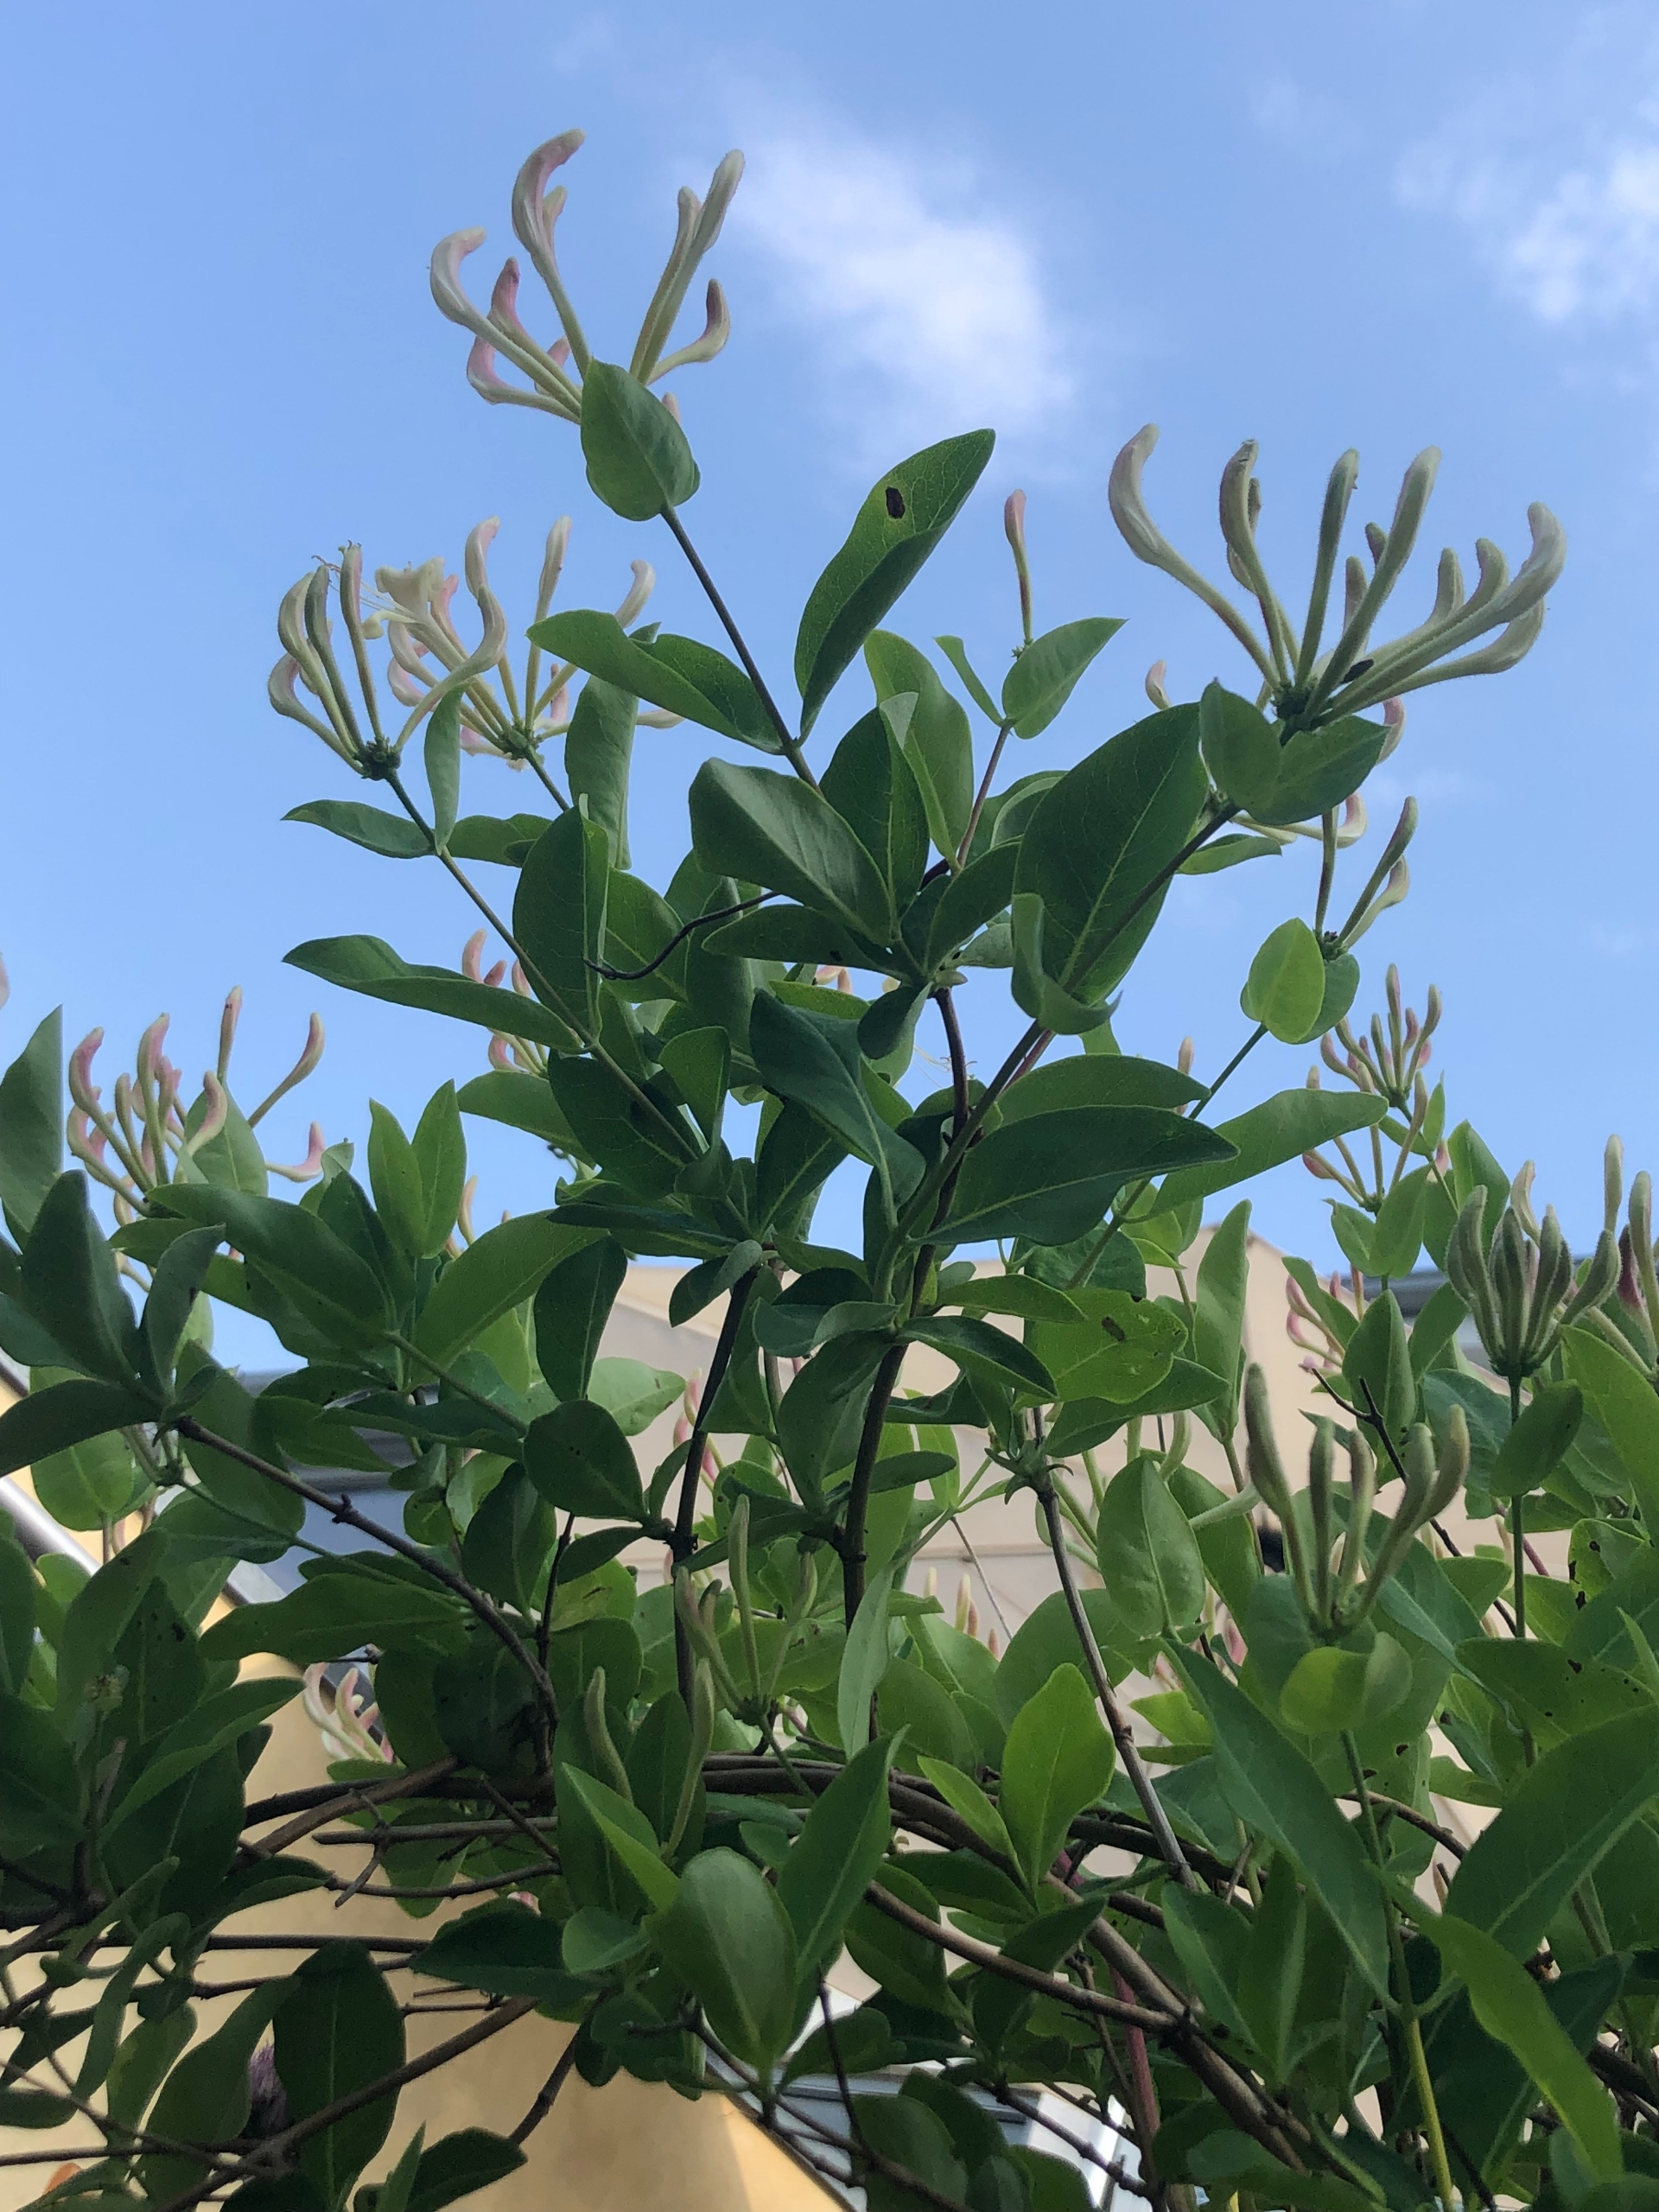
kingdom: Plantae
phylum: Tracheophyta
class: Magnoliopsida
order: Dipsacales
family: Caprifoliaceae
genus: Lonicera
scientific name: Lonicera periclymenum
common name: Almindelig gedeblad
